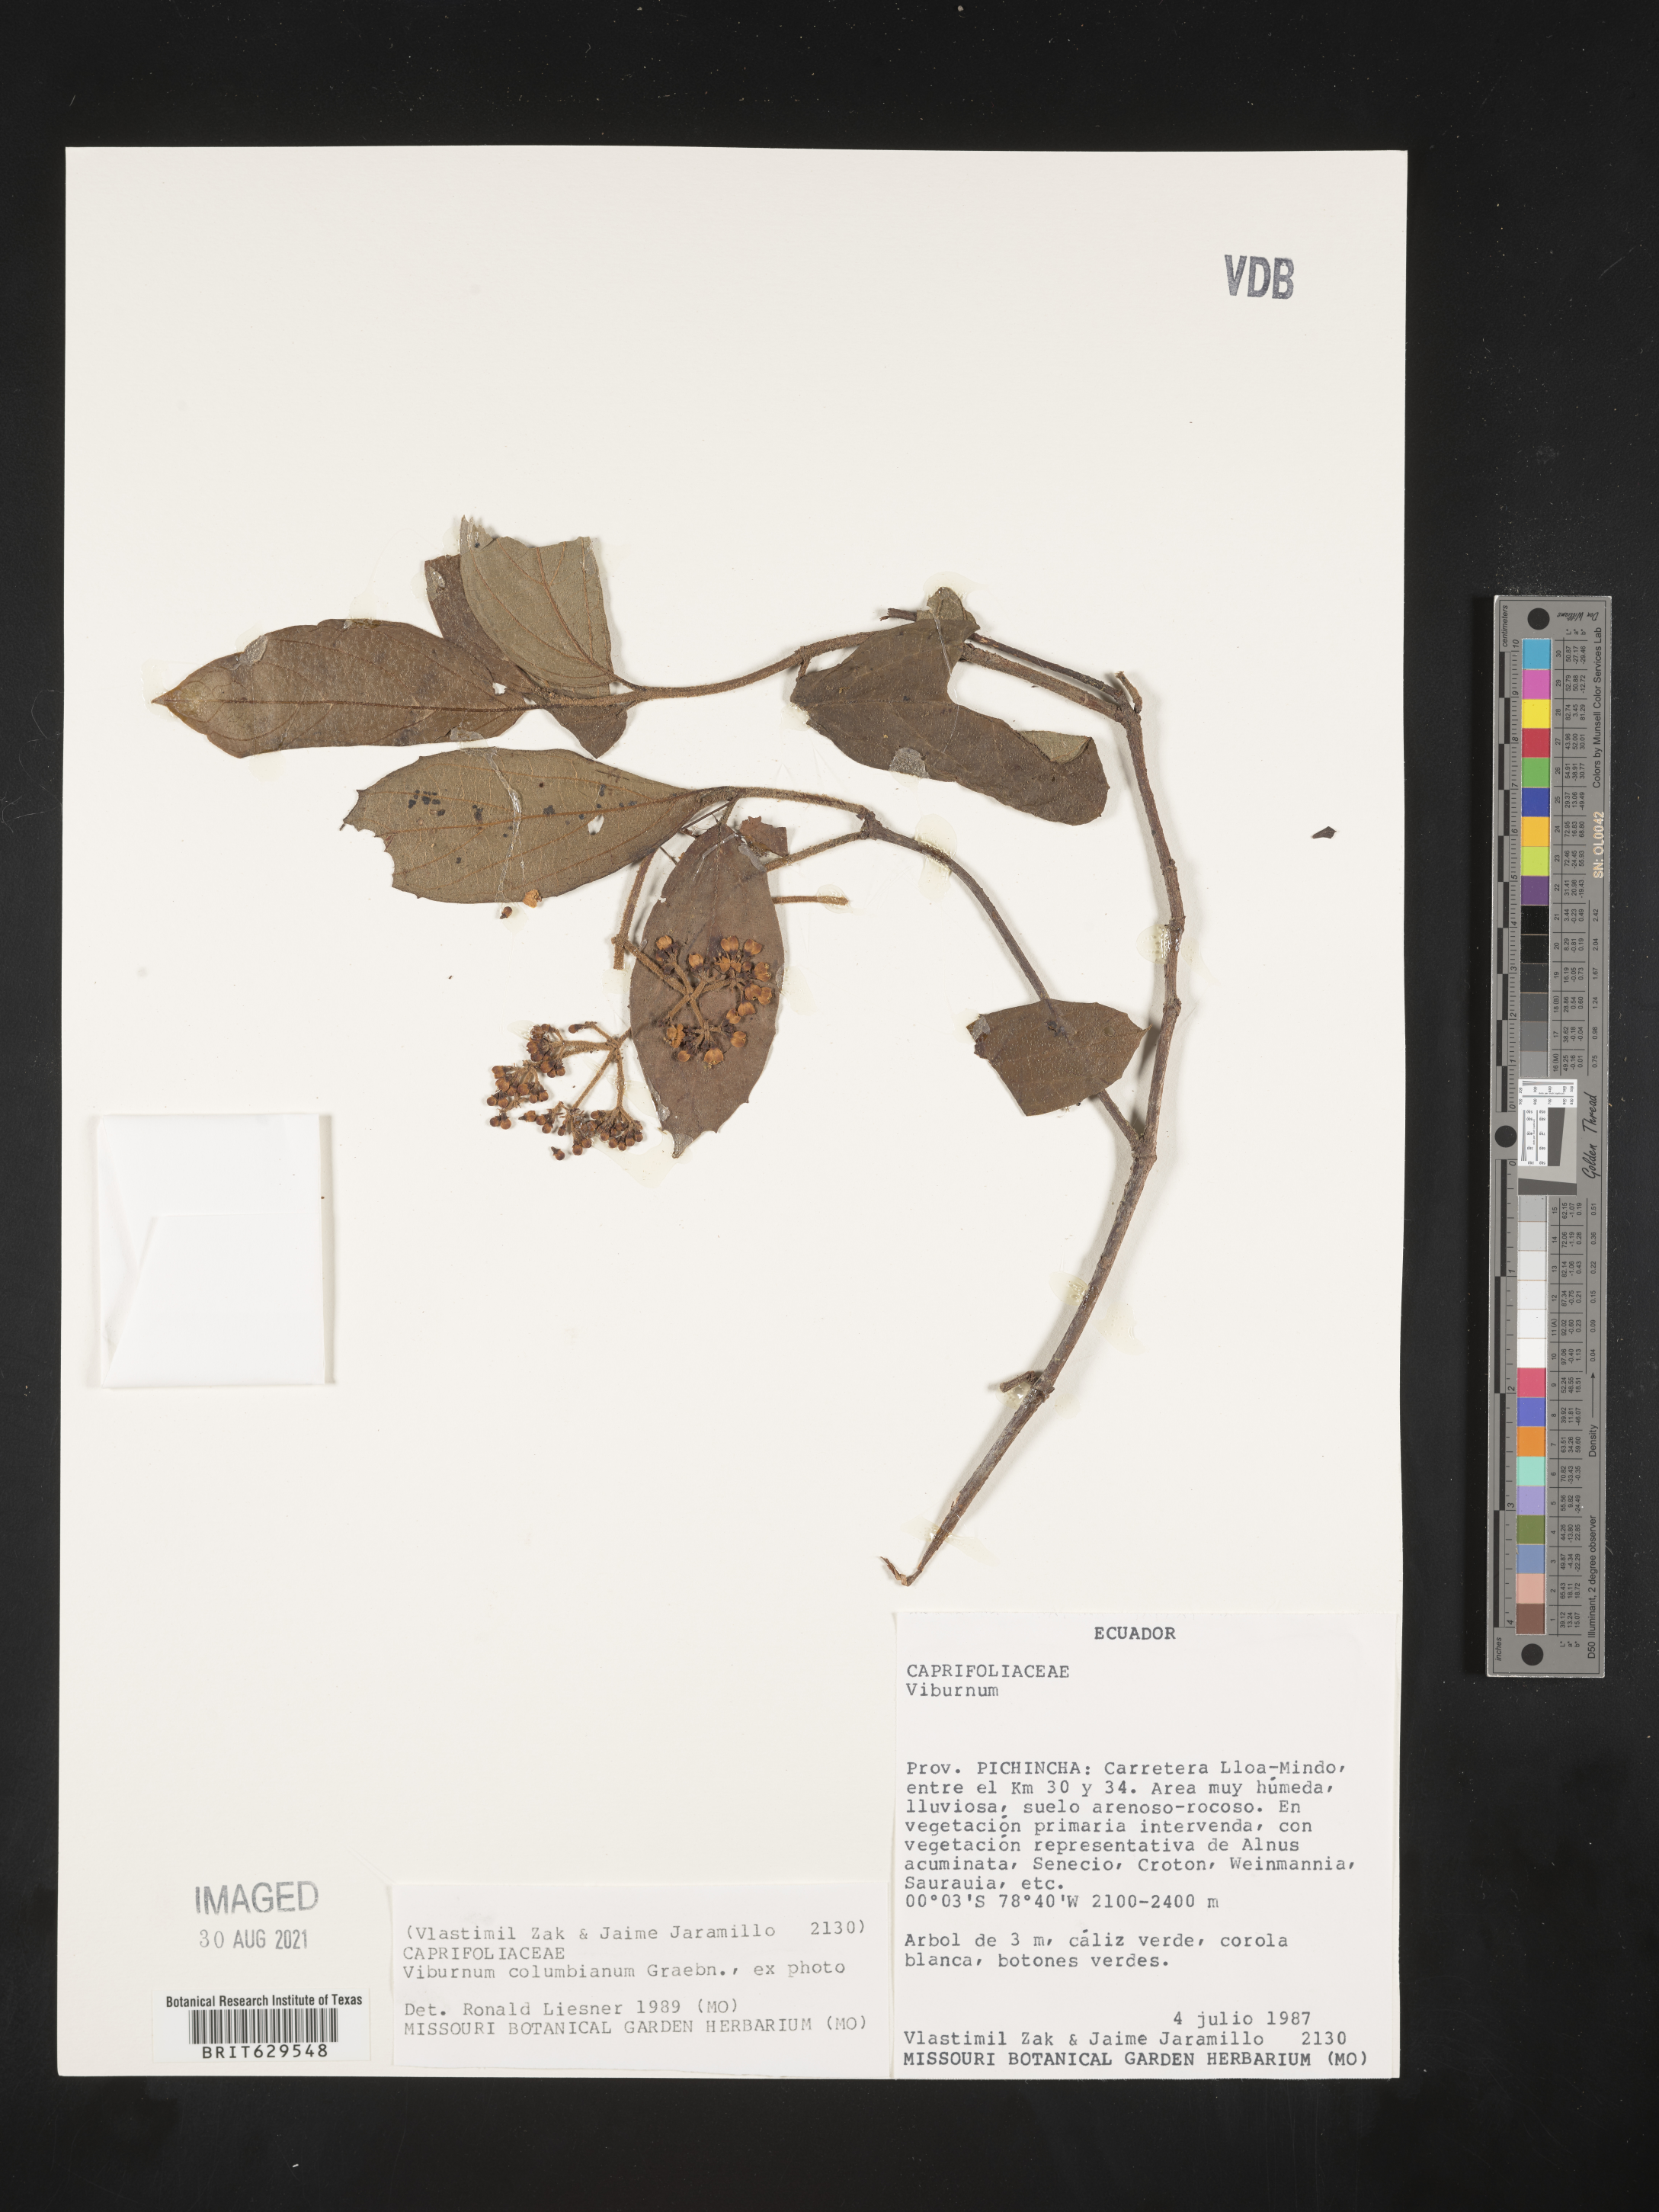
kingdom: Plantae
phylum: Tracheophyta
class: Magnoliopsida
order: Dipsacales
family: Viburnaceae
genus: Viburnum
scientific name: Viburnum
